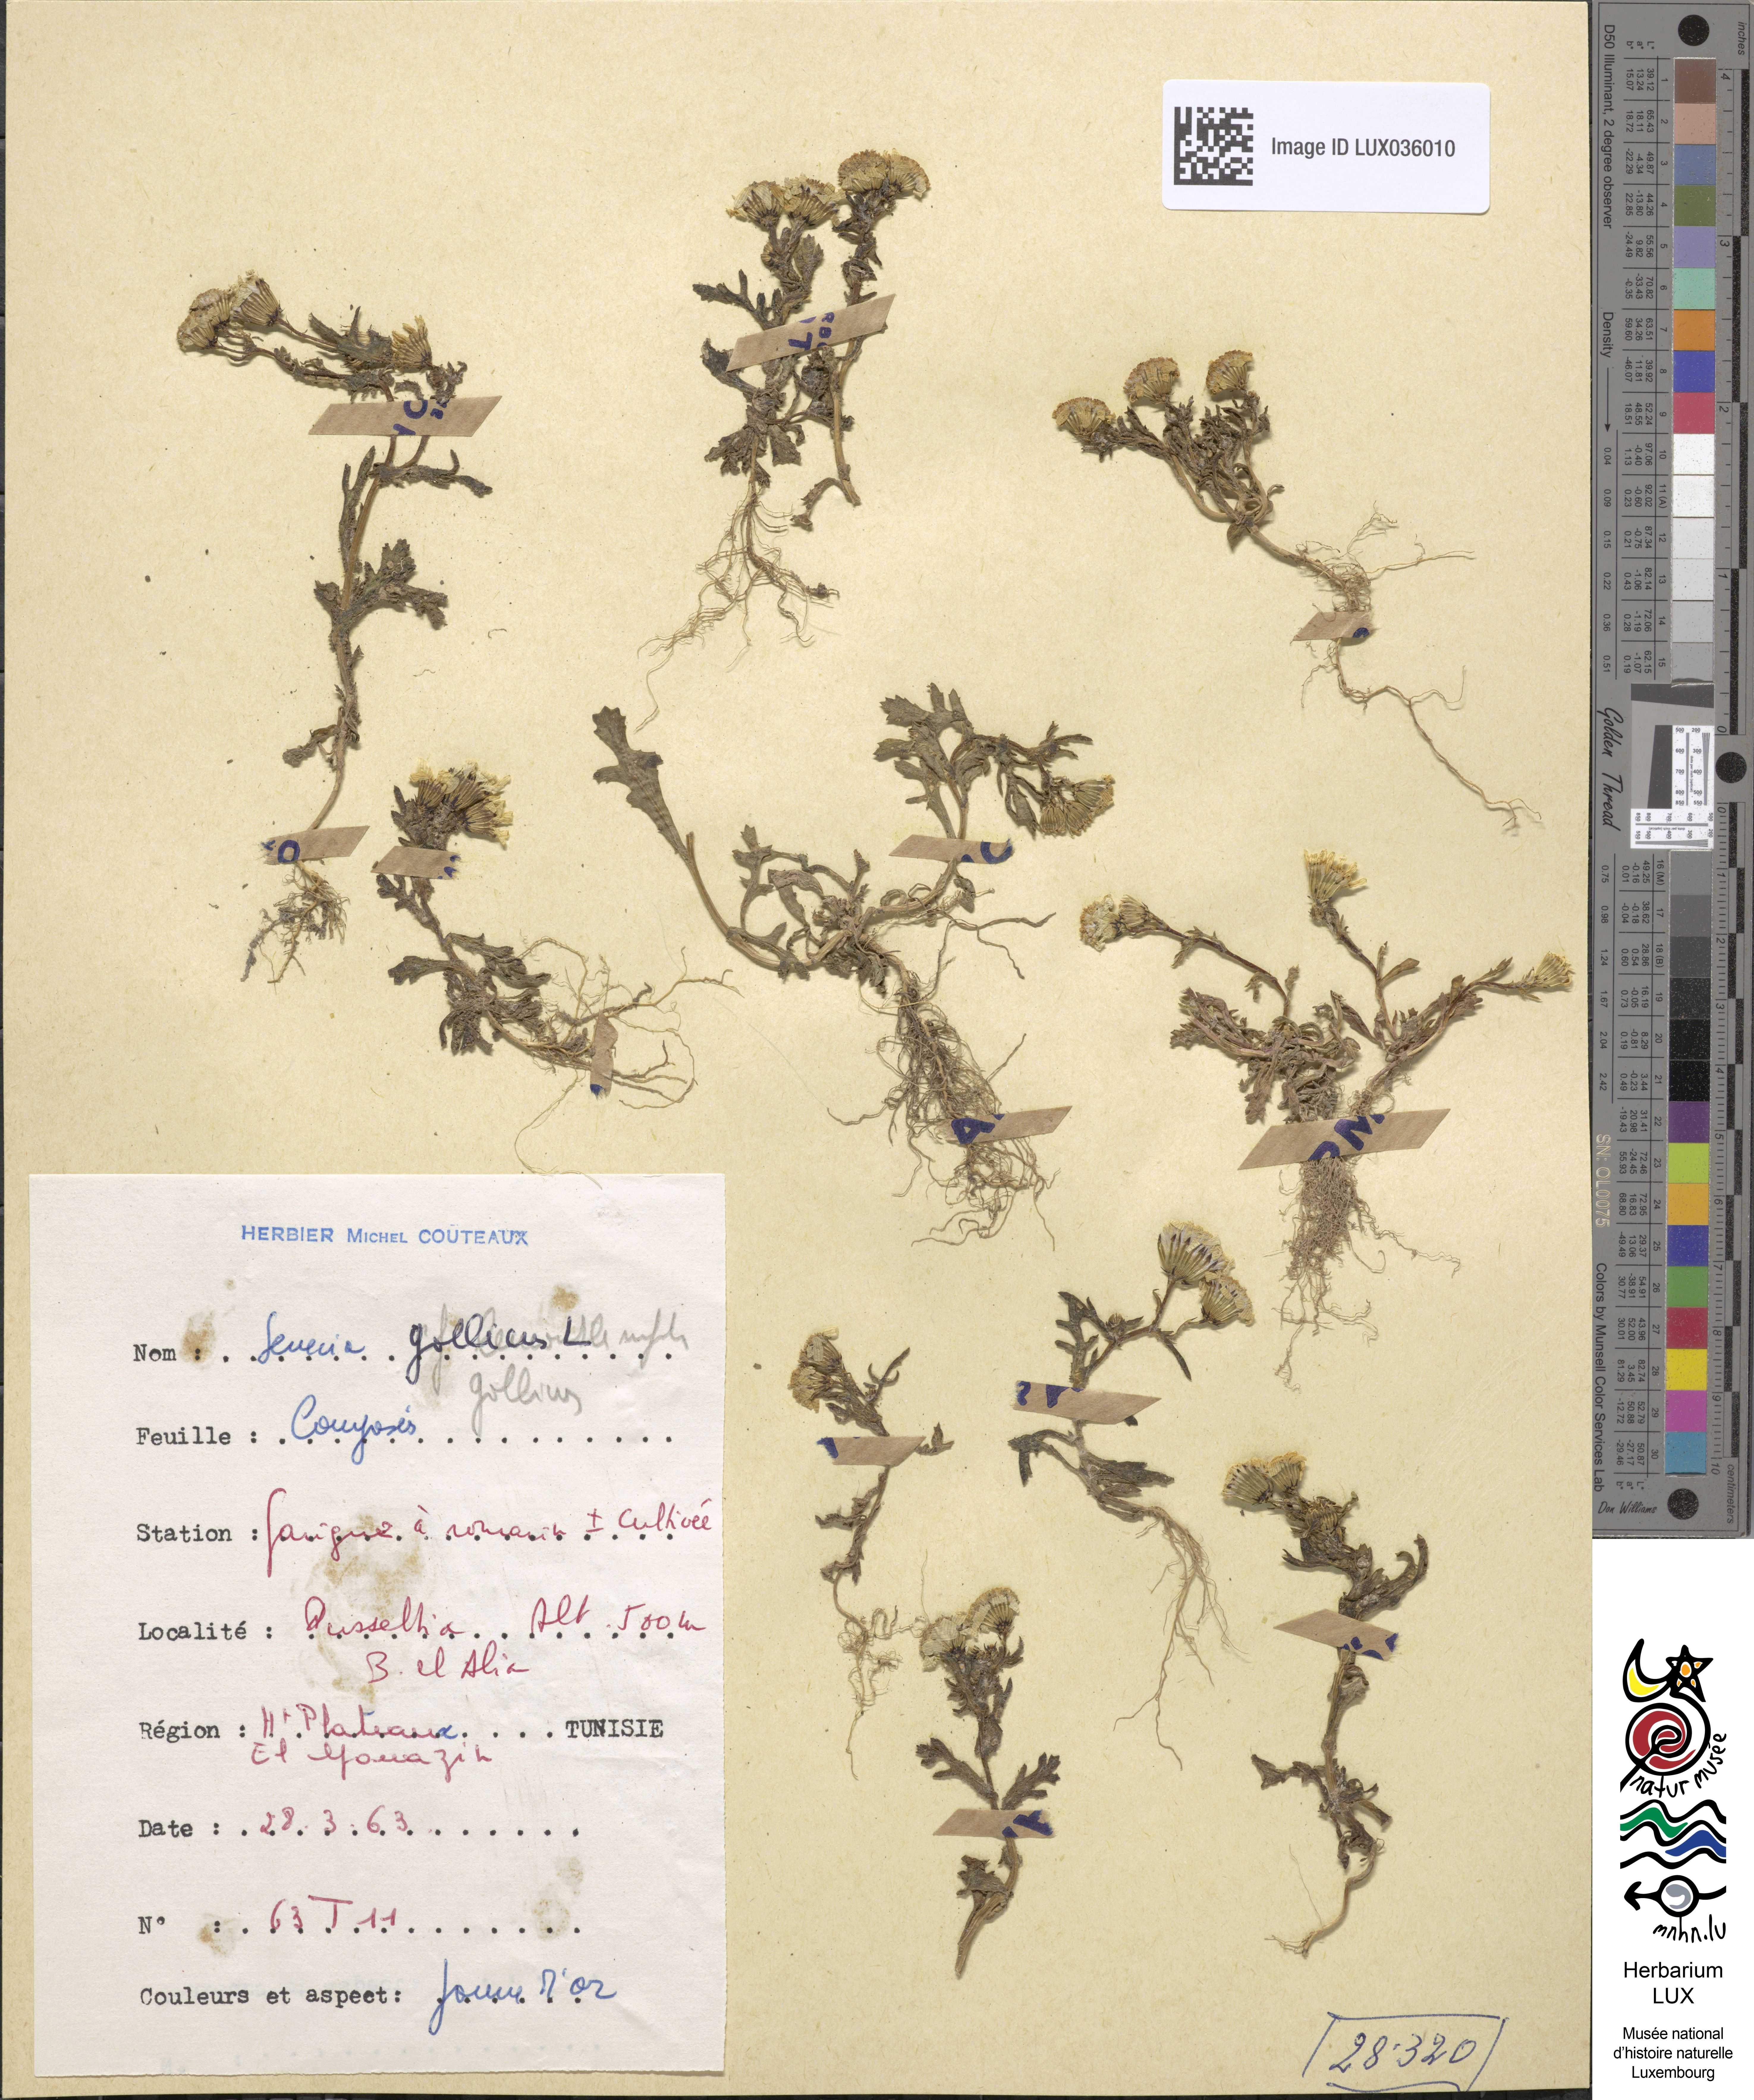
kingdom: Plantae
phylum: Tracheophyta
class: Magnoliopsida
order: Asterales
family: Asteraceae
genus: Senecio
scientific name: Senecio gallicus
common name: French groundsel
